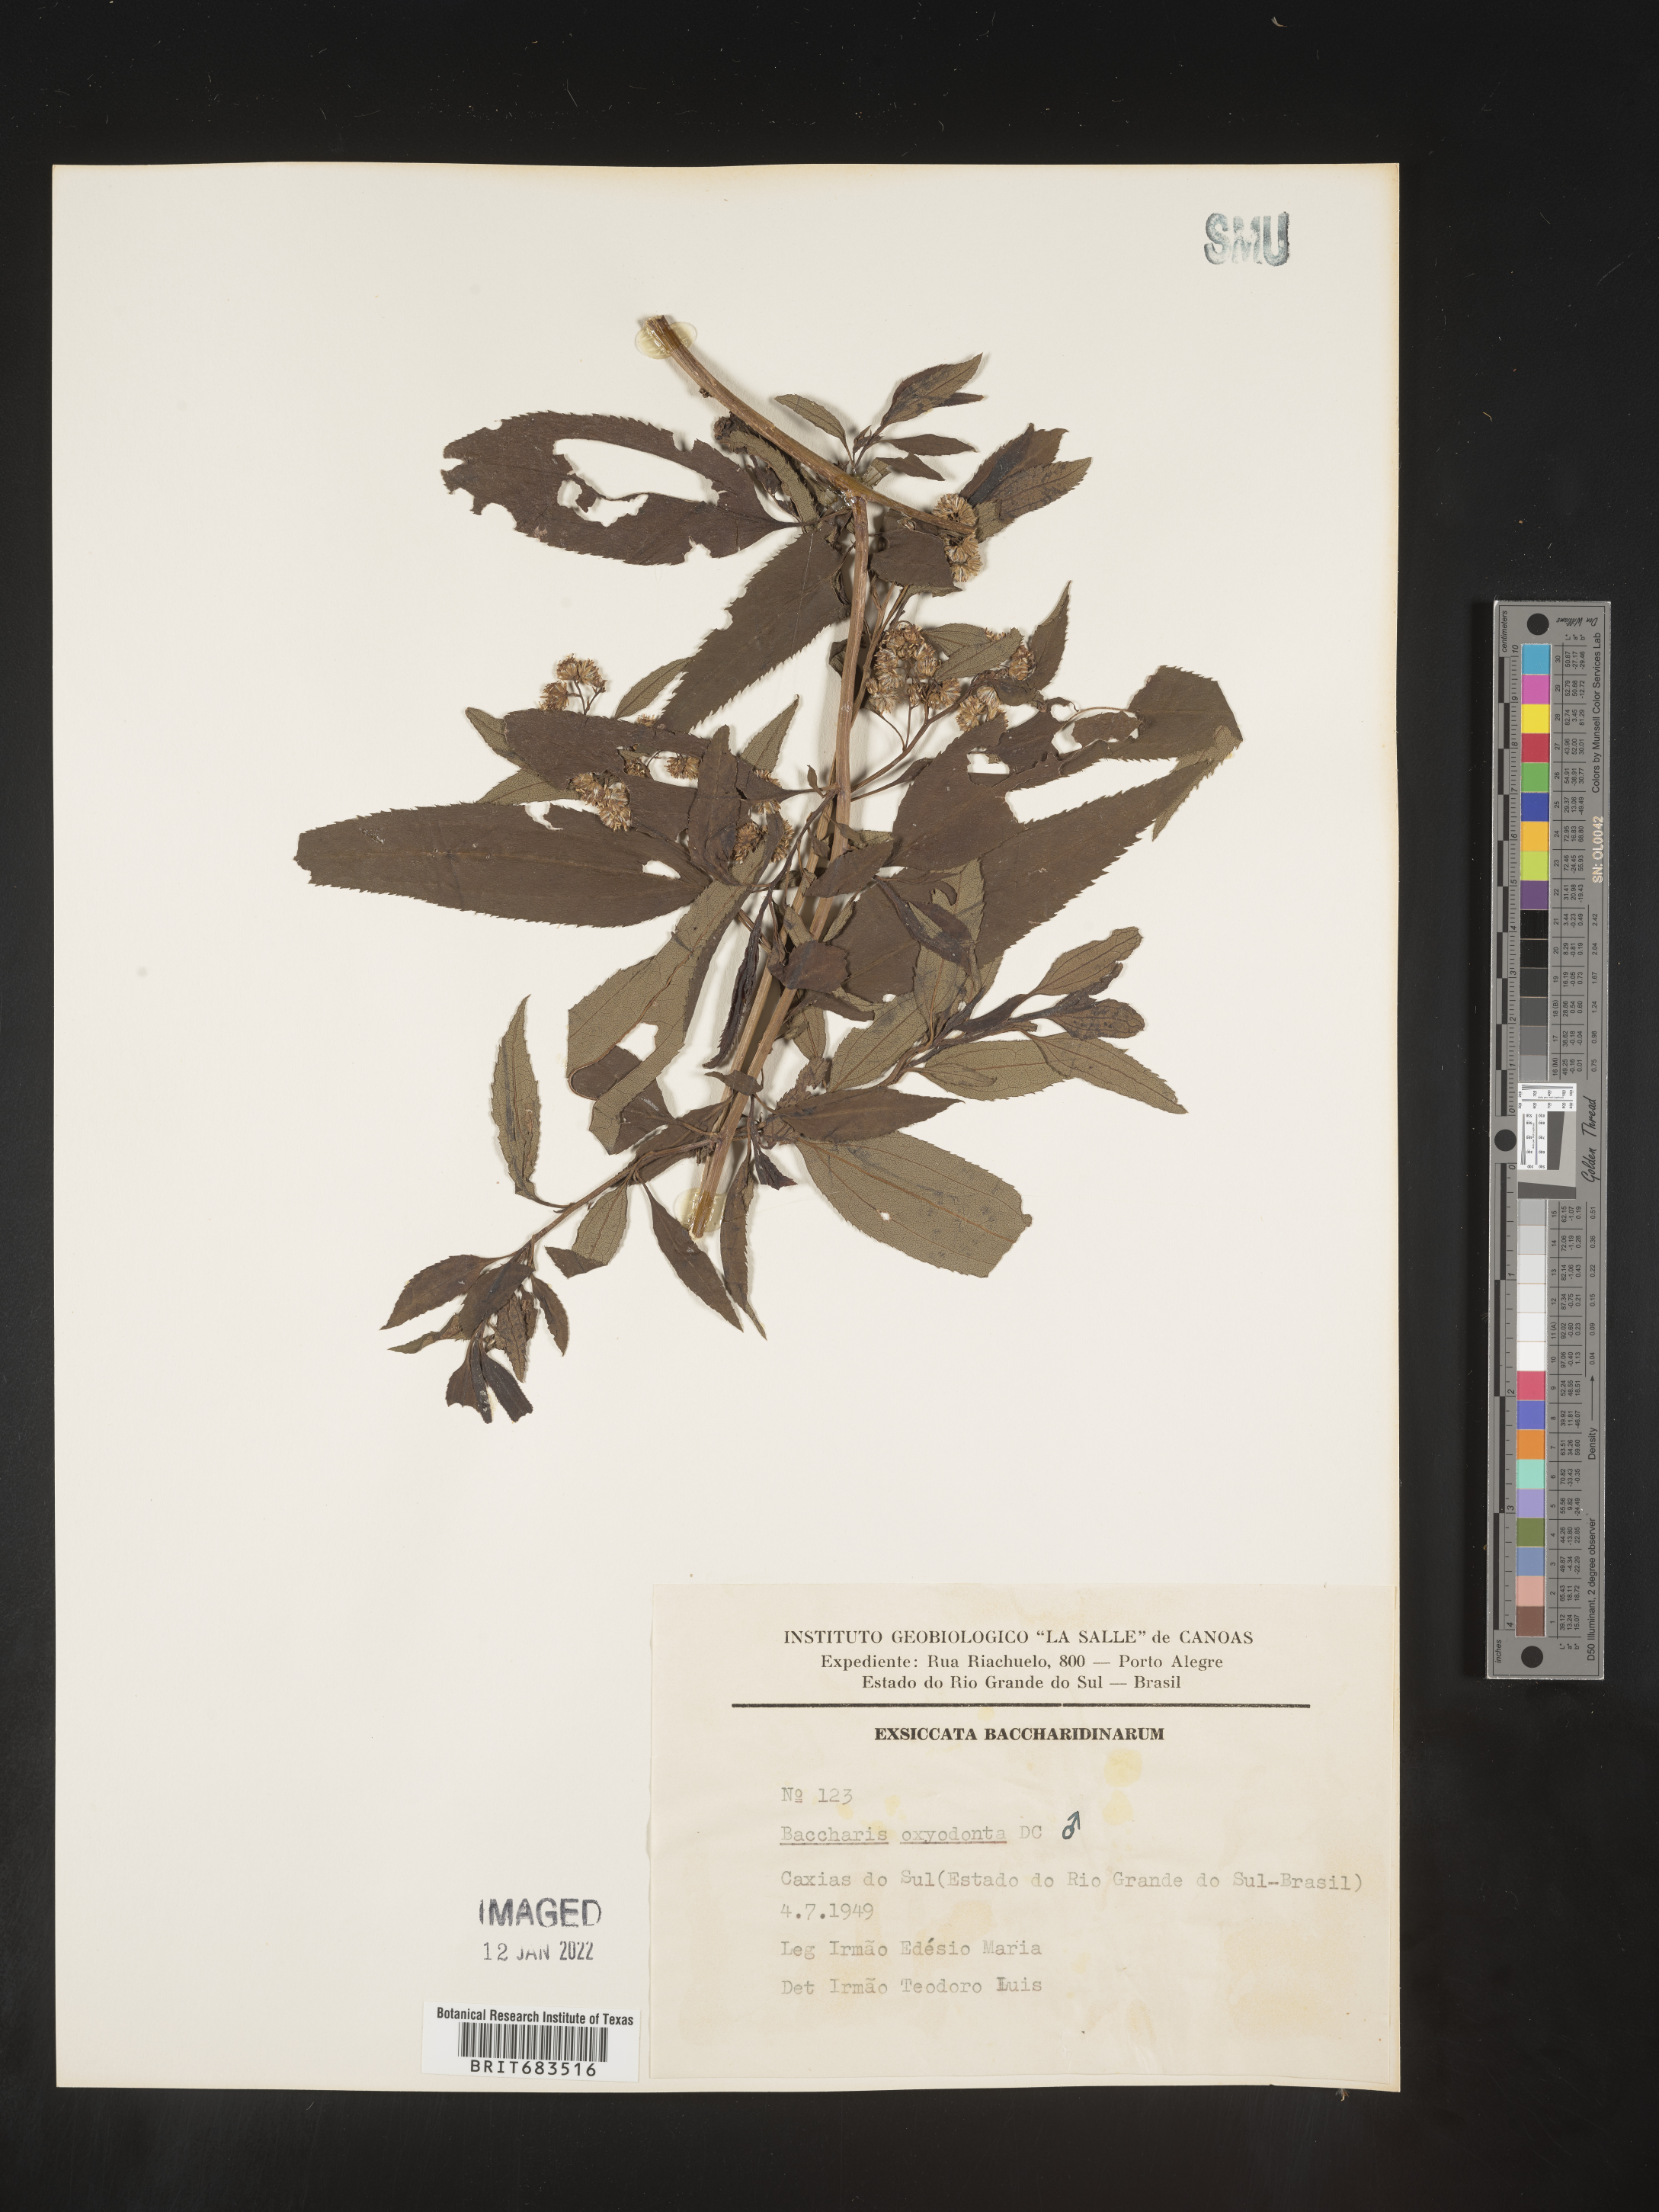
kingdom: Plantae
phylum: Tracheophyta
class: Magnoliopsida
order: Asterales
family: Asteraceae
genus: Baccharis
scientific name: Baccharis
